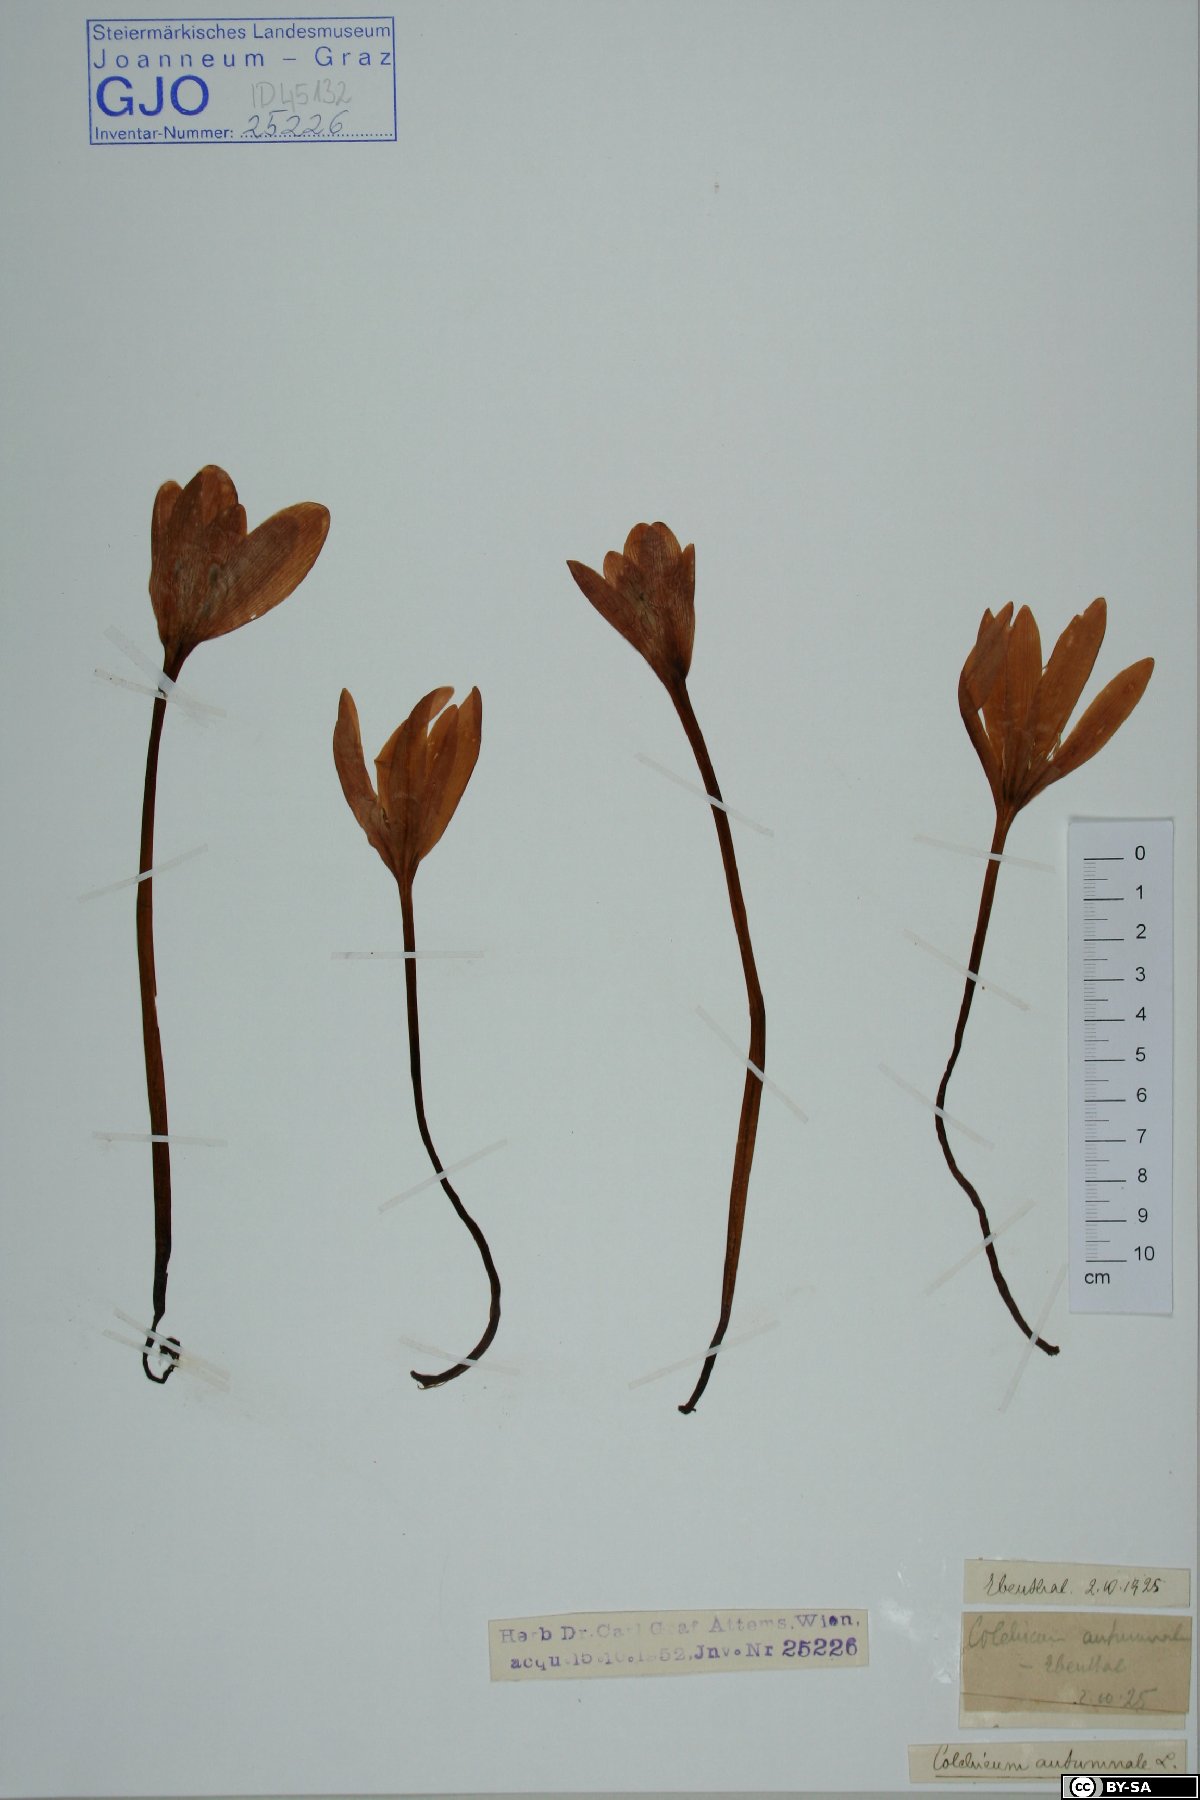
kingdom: Fungi
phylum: Basidiomycota
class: Agaricomycetes
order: Agaricales
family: Strophariaceae
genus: Stropharia
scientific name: Stropharia hornemannii
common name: Conifer roundhead
